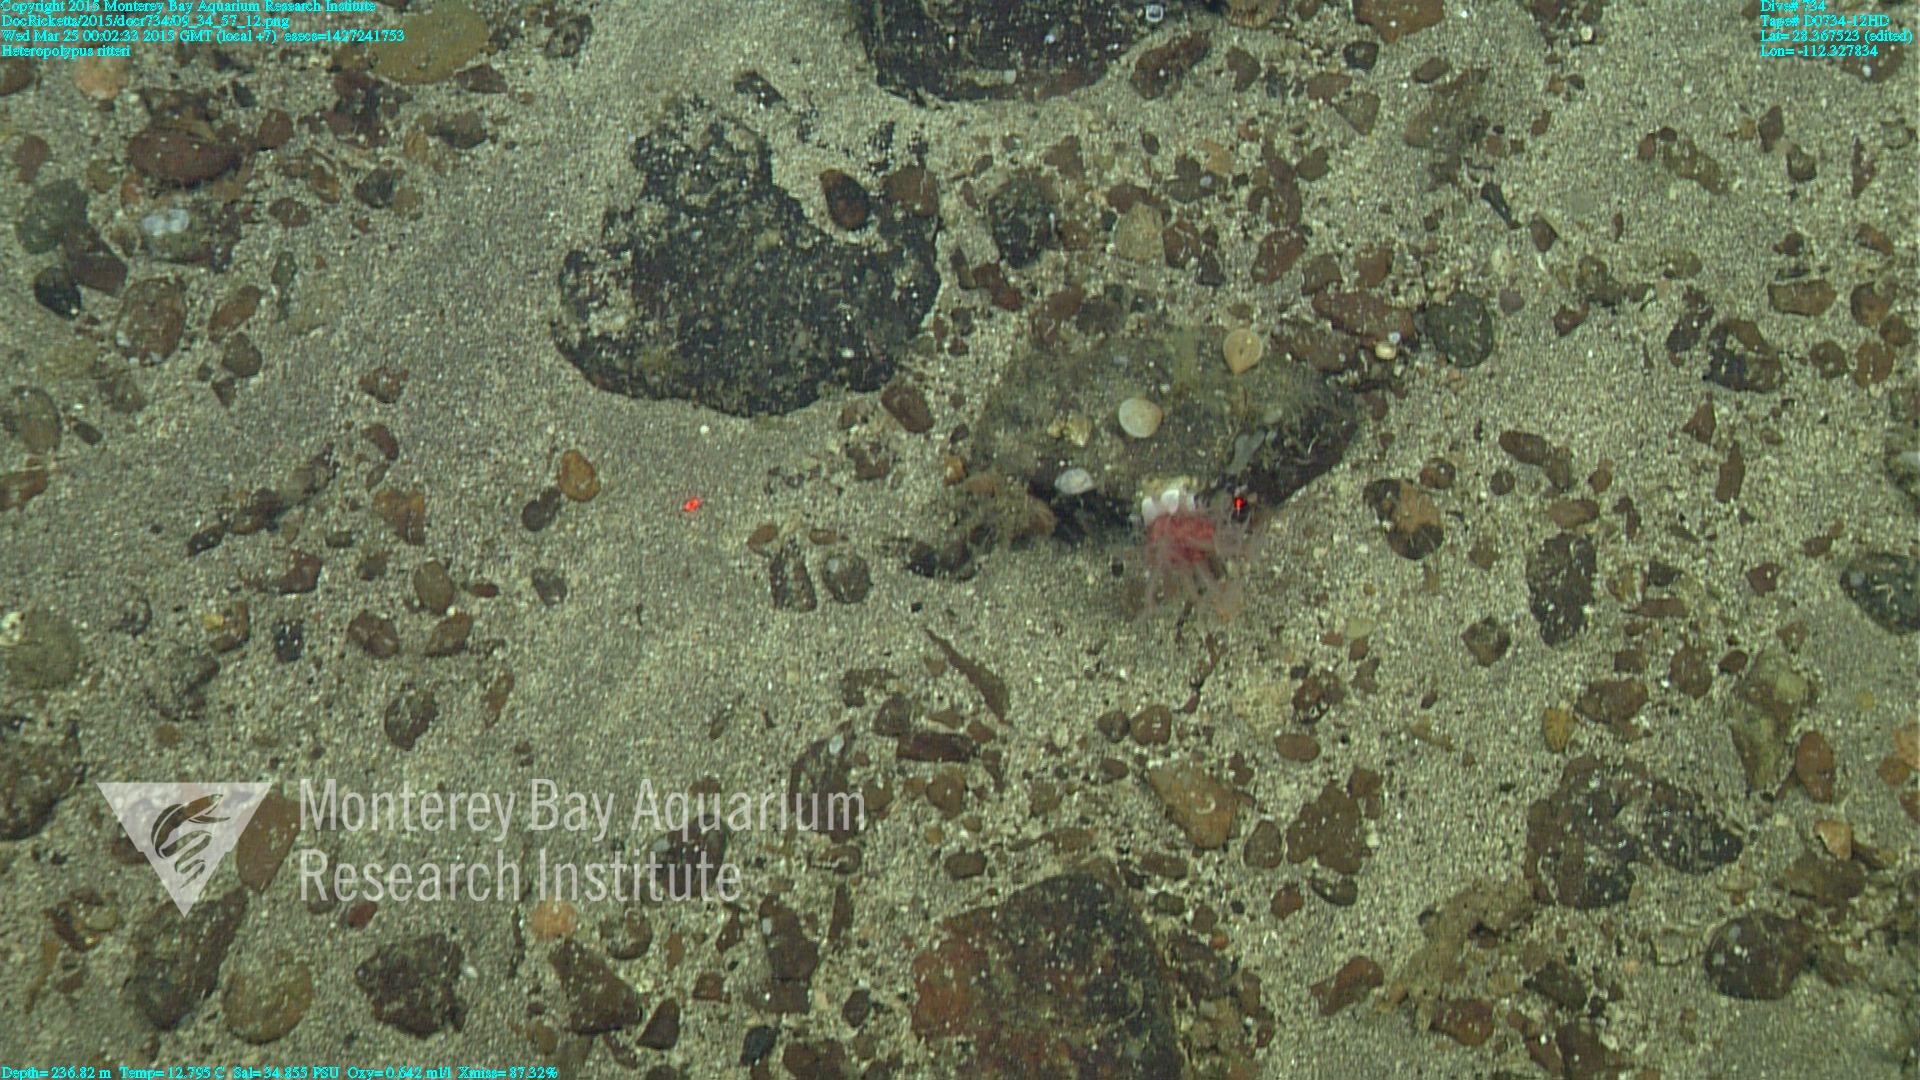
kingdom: Animalia
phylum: Cnidaria
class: Anthozoa
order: Scleralcyonacea
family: Coralliidae
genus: Heteropolypus
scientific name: Heteropolypus ritteri
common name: Ritter's soft coral
